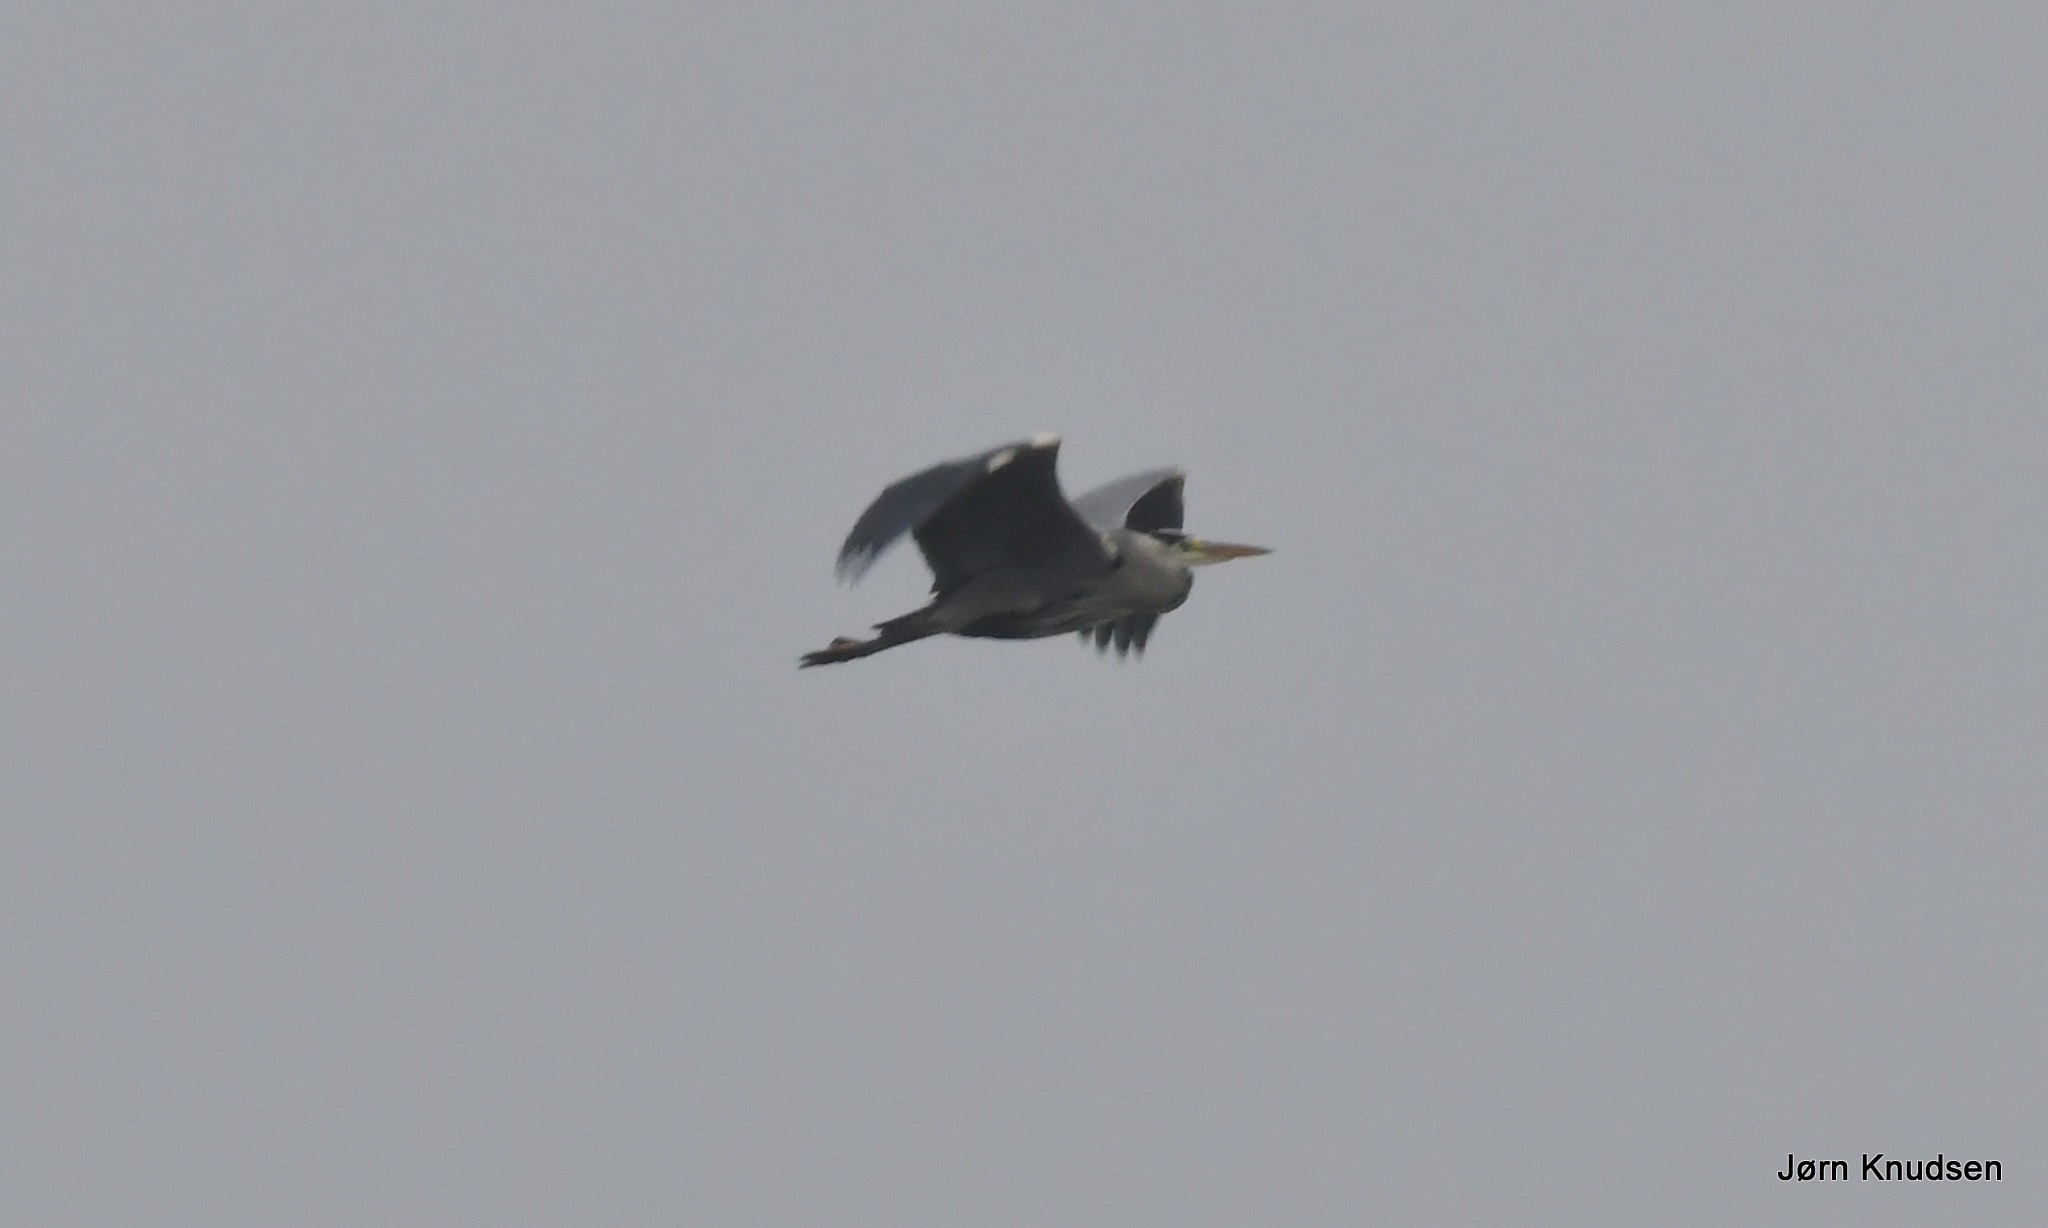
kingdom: Animalia
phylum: Chordata
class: Aves
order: Pelecaniformes
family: Ardeidae
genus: Ardea
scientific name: Ardea cinerea
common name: Fiskehejre
